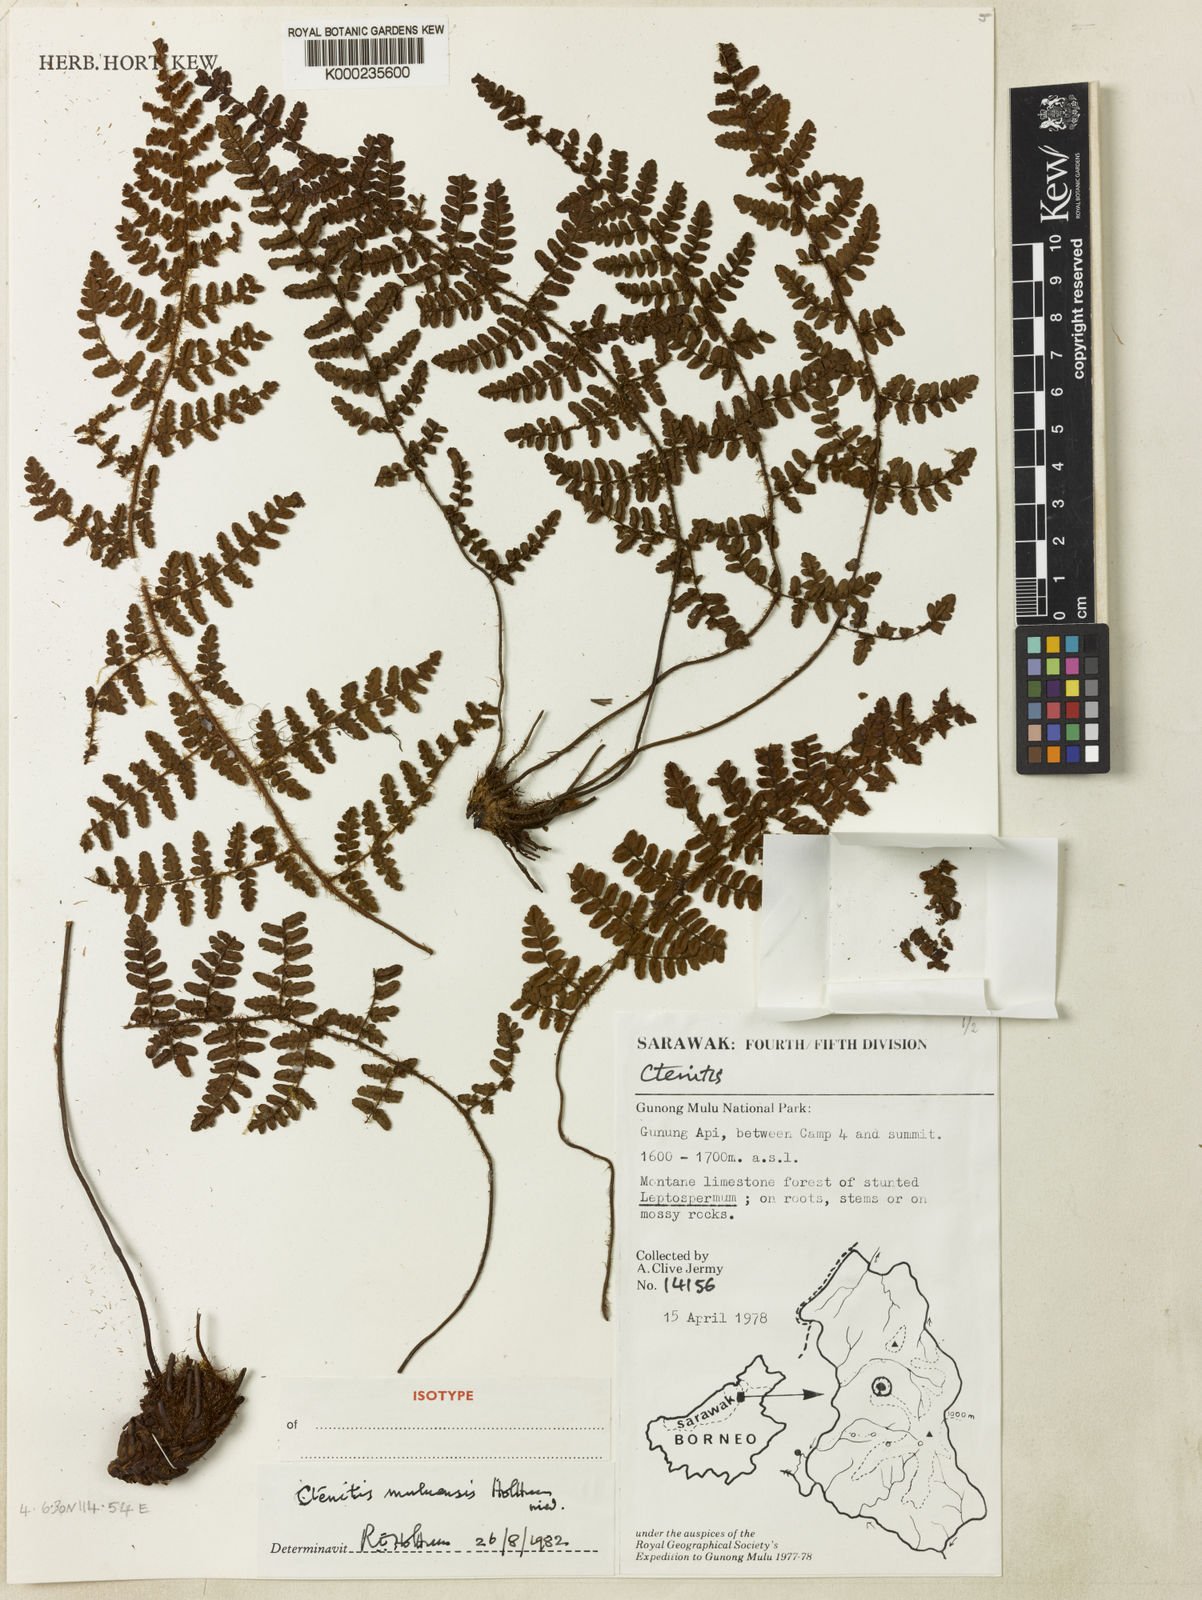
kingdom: Plantae
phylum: Tracheophyta
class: Polypodiopsida
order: Polypodiales
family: Dryopteridaceae
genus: Ctenitis
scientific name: Ctenitis muluensis
